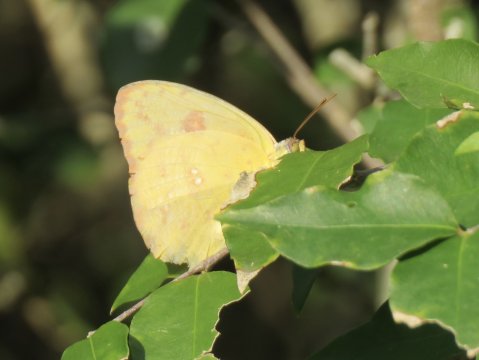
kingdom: Animalia
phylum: Arthropoda
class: Insecta
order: Lepidoptera
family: Pieridae
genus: Phoebis
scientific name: Phoebis sennae
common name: Cloudless Sulphur
